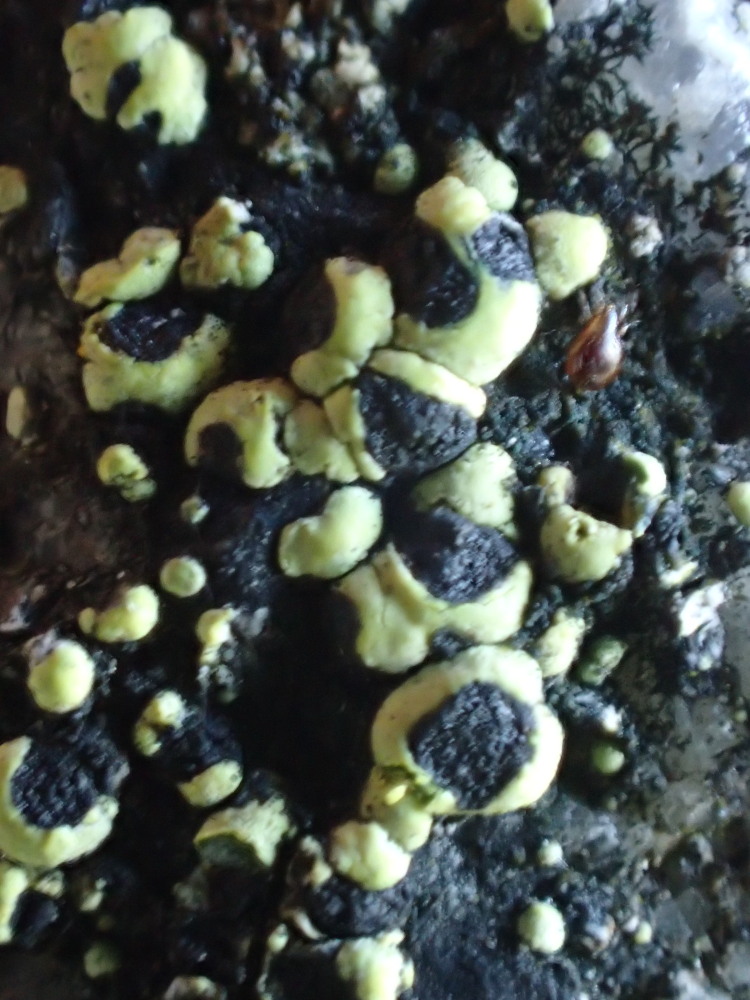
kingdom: Fungi
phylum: Ascomycota
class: Lecanoromycetes
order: Rhizocarpales
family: Rhizocarpaceae
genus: Rhizocarpon
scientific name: Rhizocarpon lecanorinum
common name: krave-landkortlav
